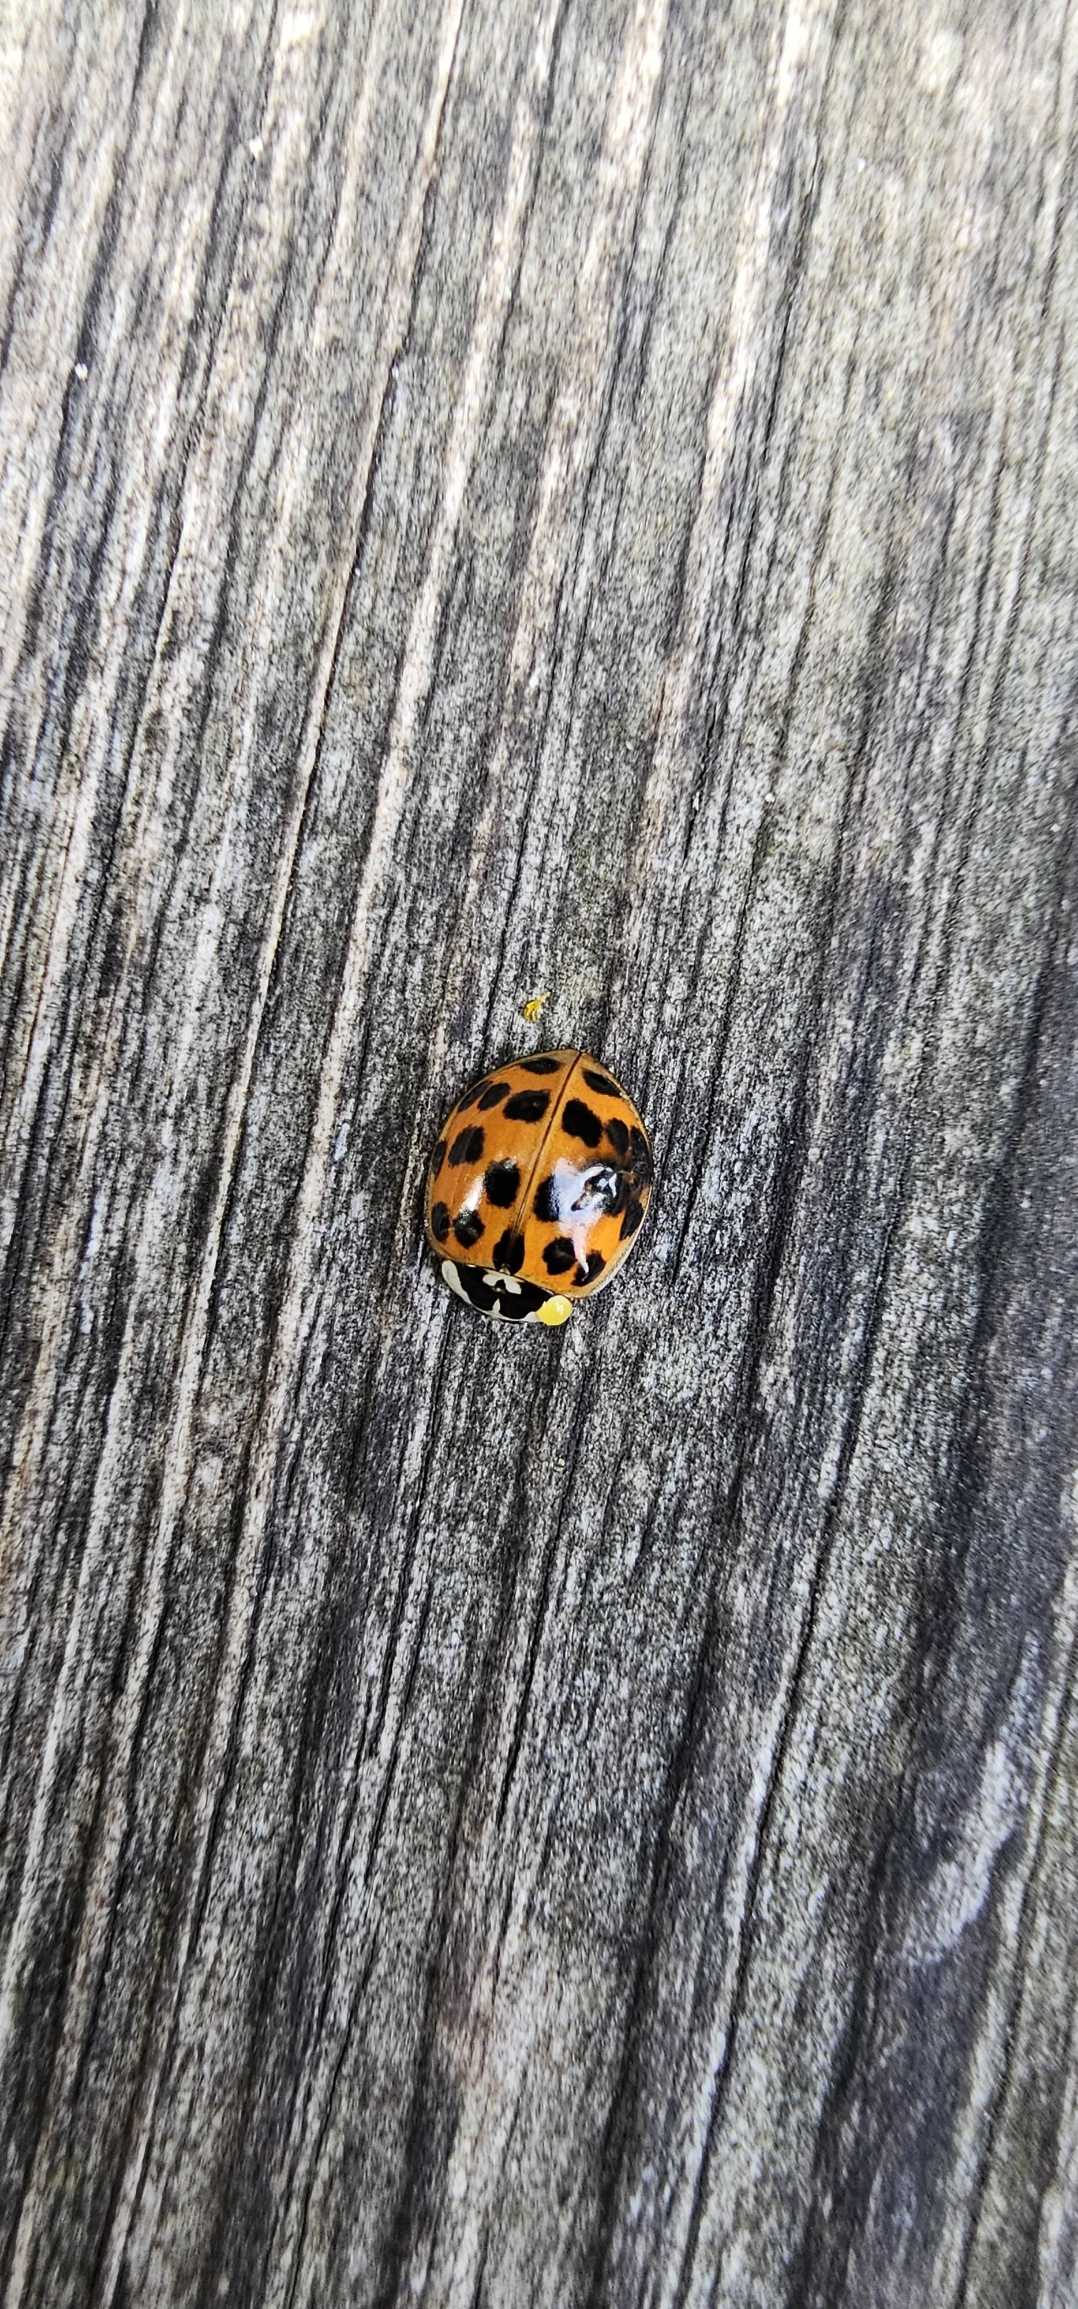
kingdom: Animalia
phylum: Arthropoda
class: Insecta
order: Coleoptera
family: Coccinellidae
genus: Harmonia
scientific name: Harmonia axyridis
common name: Harlekinmariehøne
